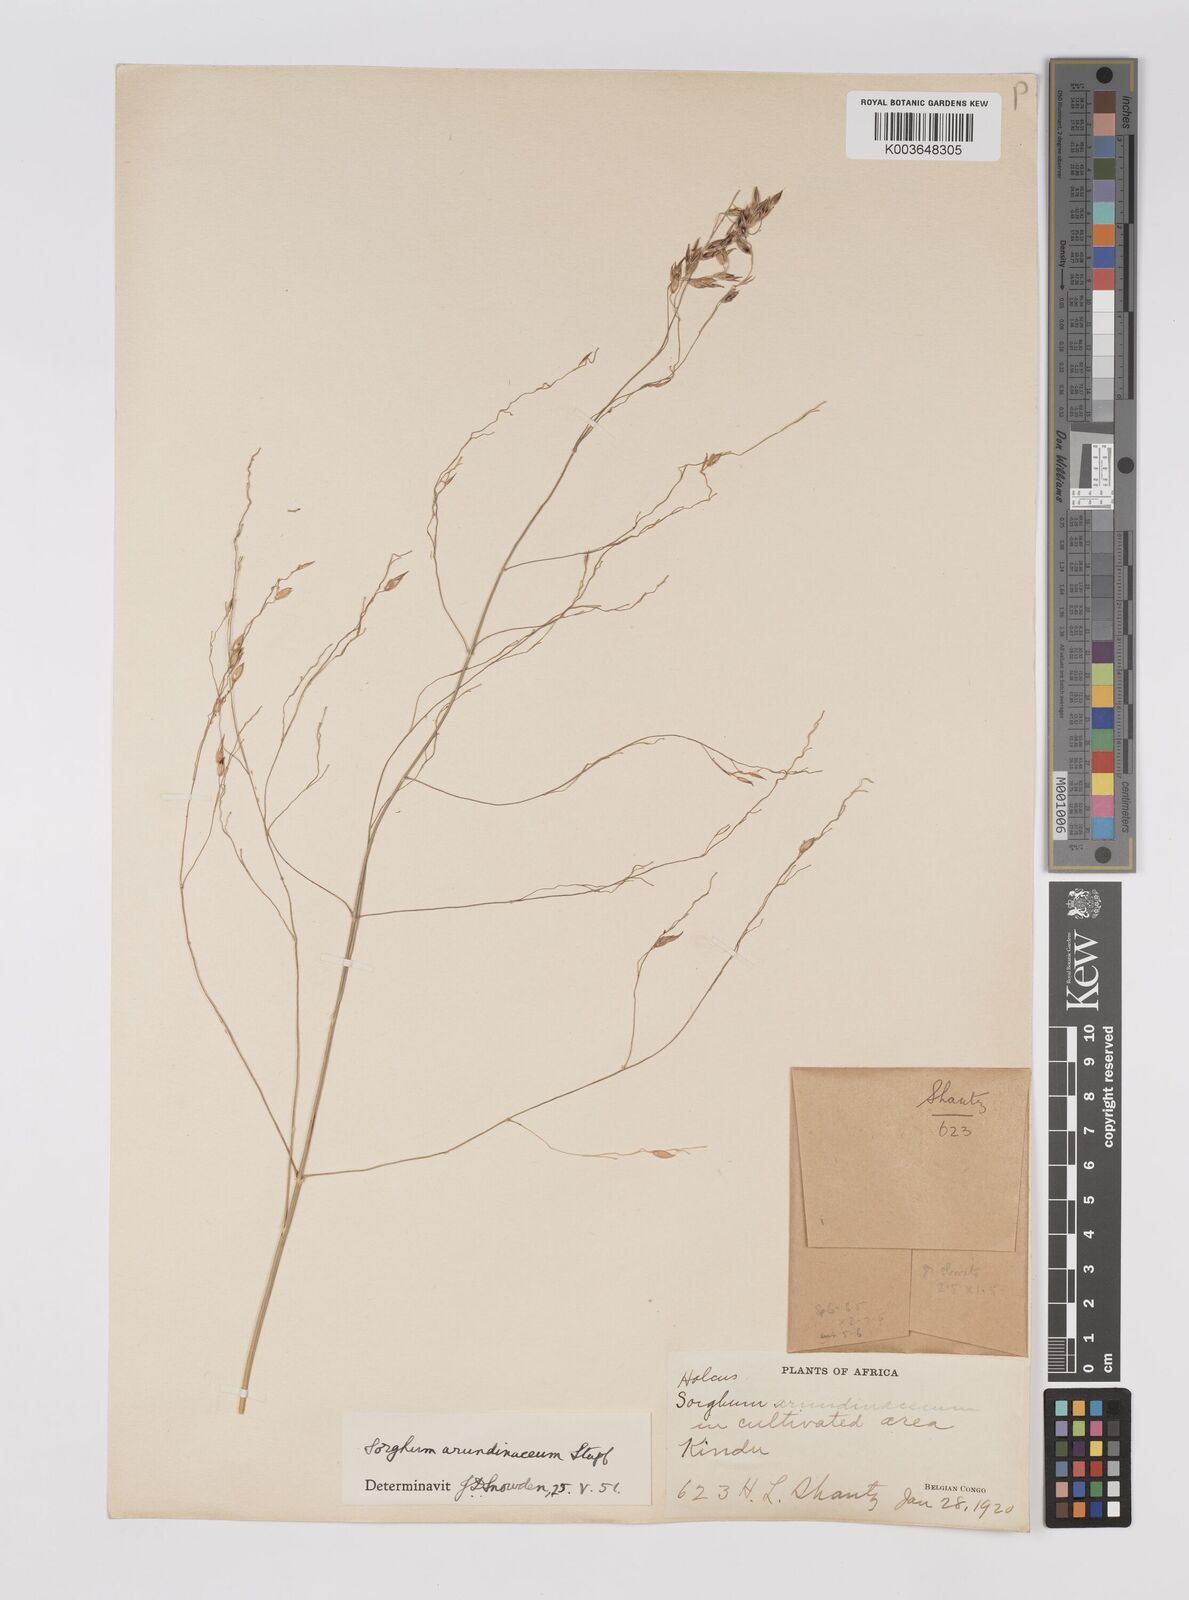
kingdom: Plantae
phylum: Tracheophyta
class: Liliopsida
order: Poales
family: Poaceae
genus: Sorghum
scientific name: Sorghum arundinaceum
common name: Sorghum
